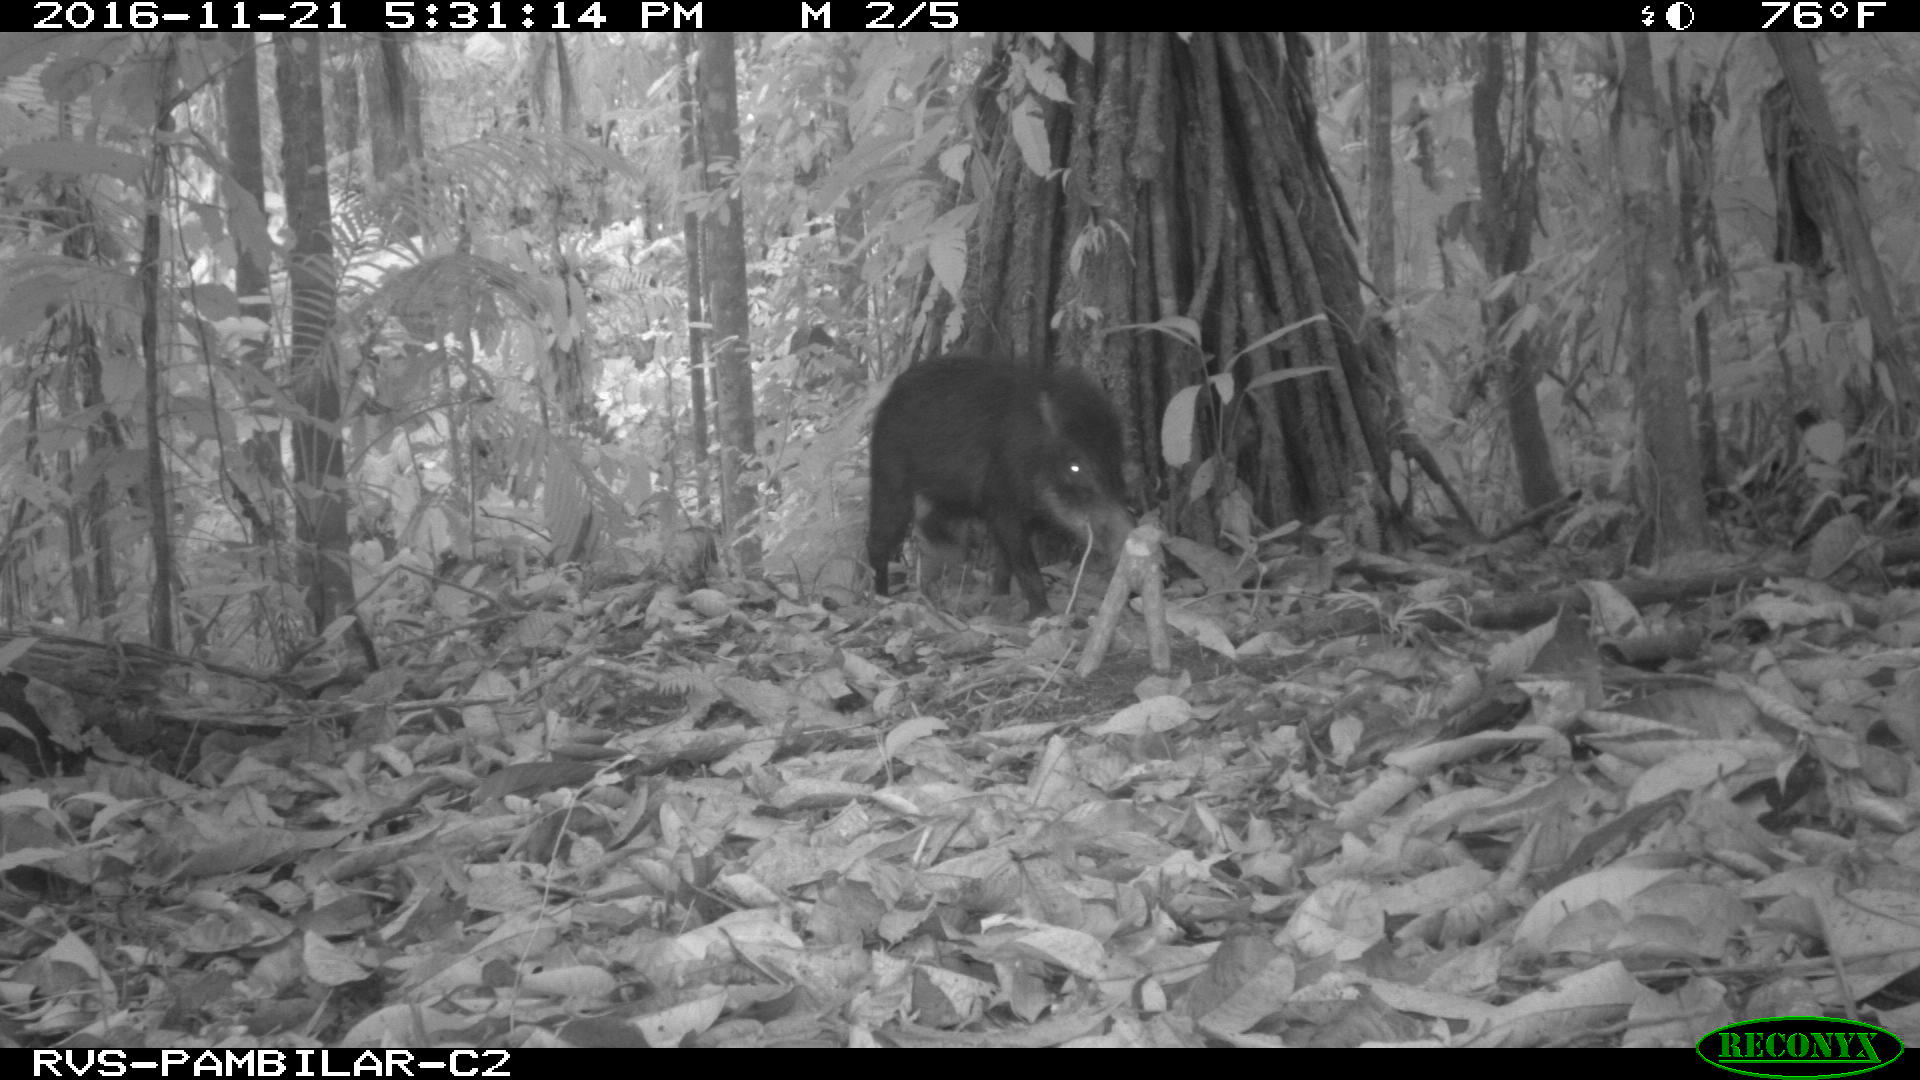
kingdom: Animalia
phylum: Chordata
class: Mammalia
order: Artiodactyla
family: Tayassuidae
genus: Tayassu
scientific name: Tayassu pecari
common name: White-lipped peccary
